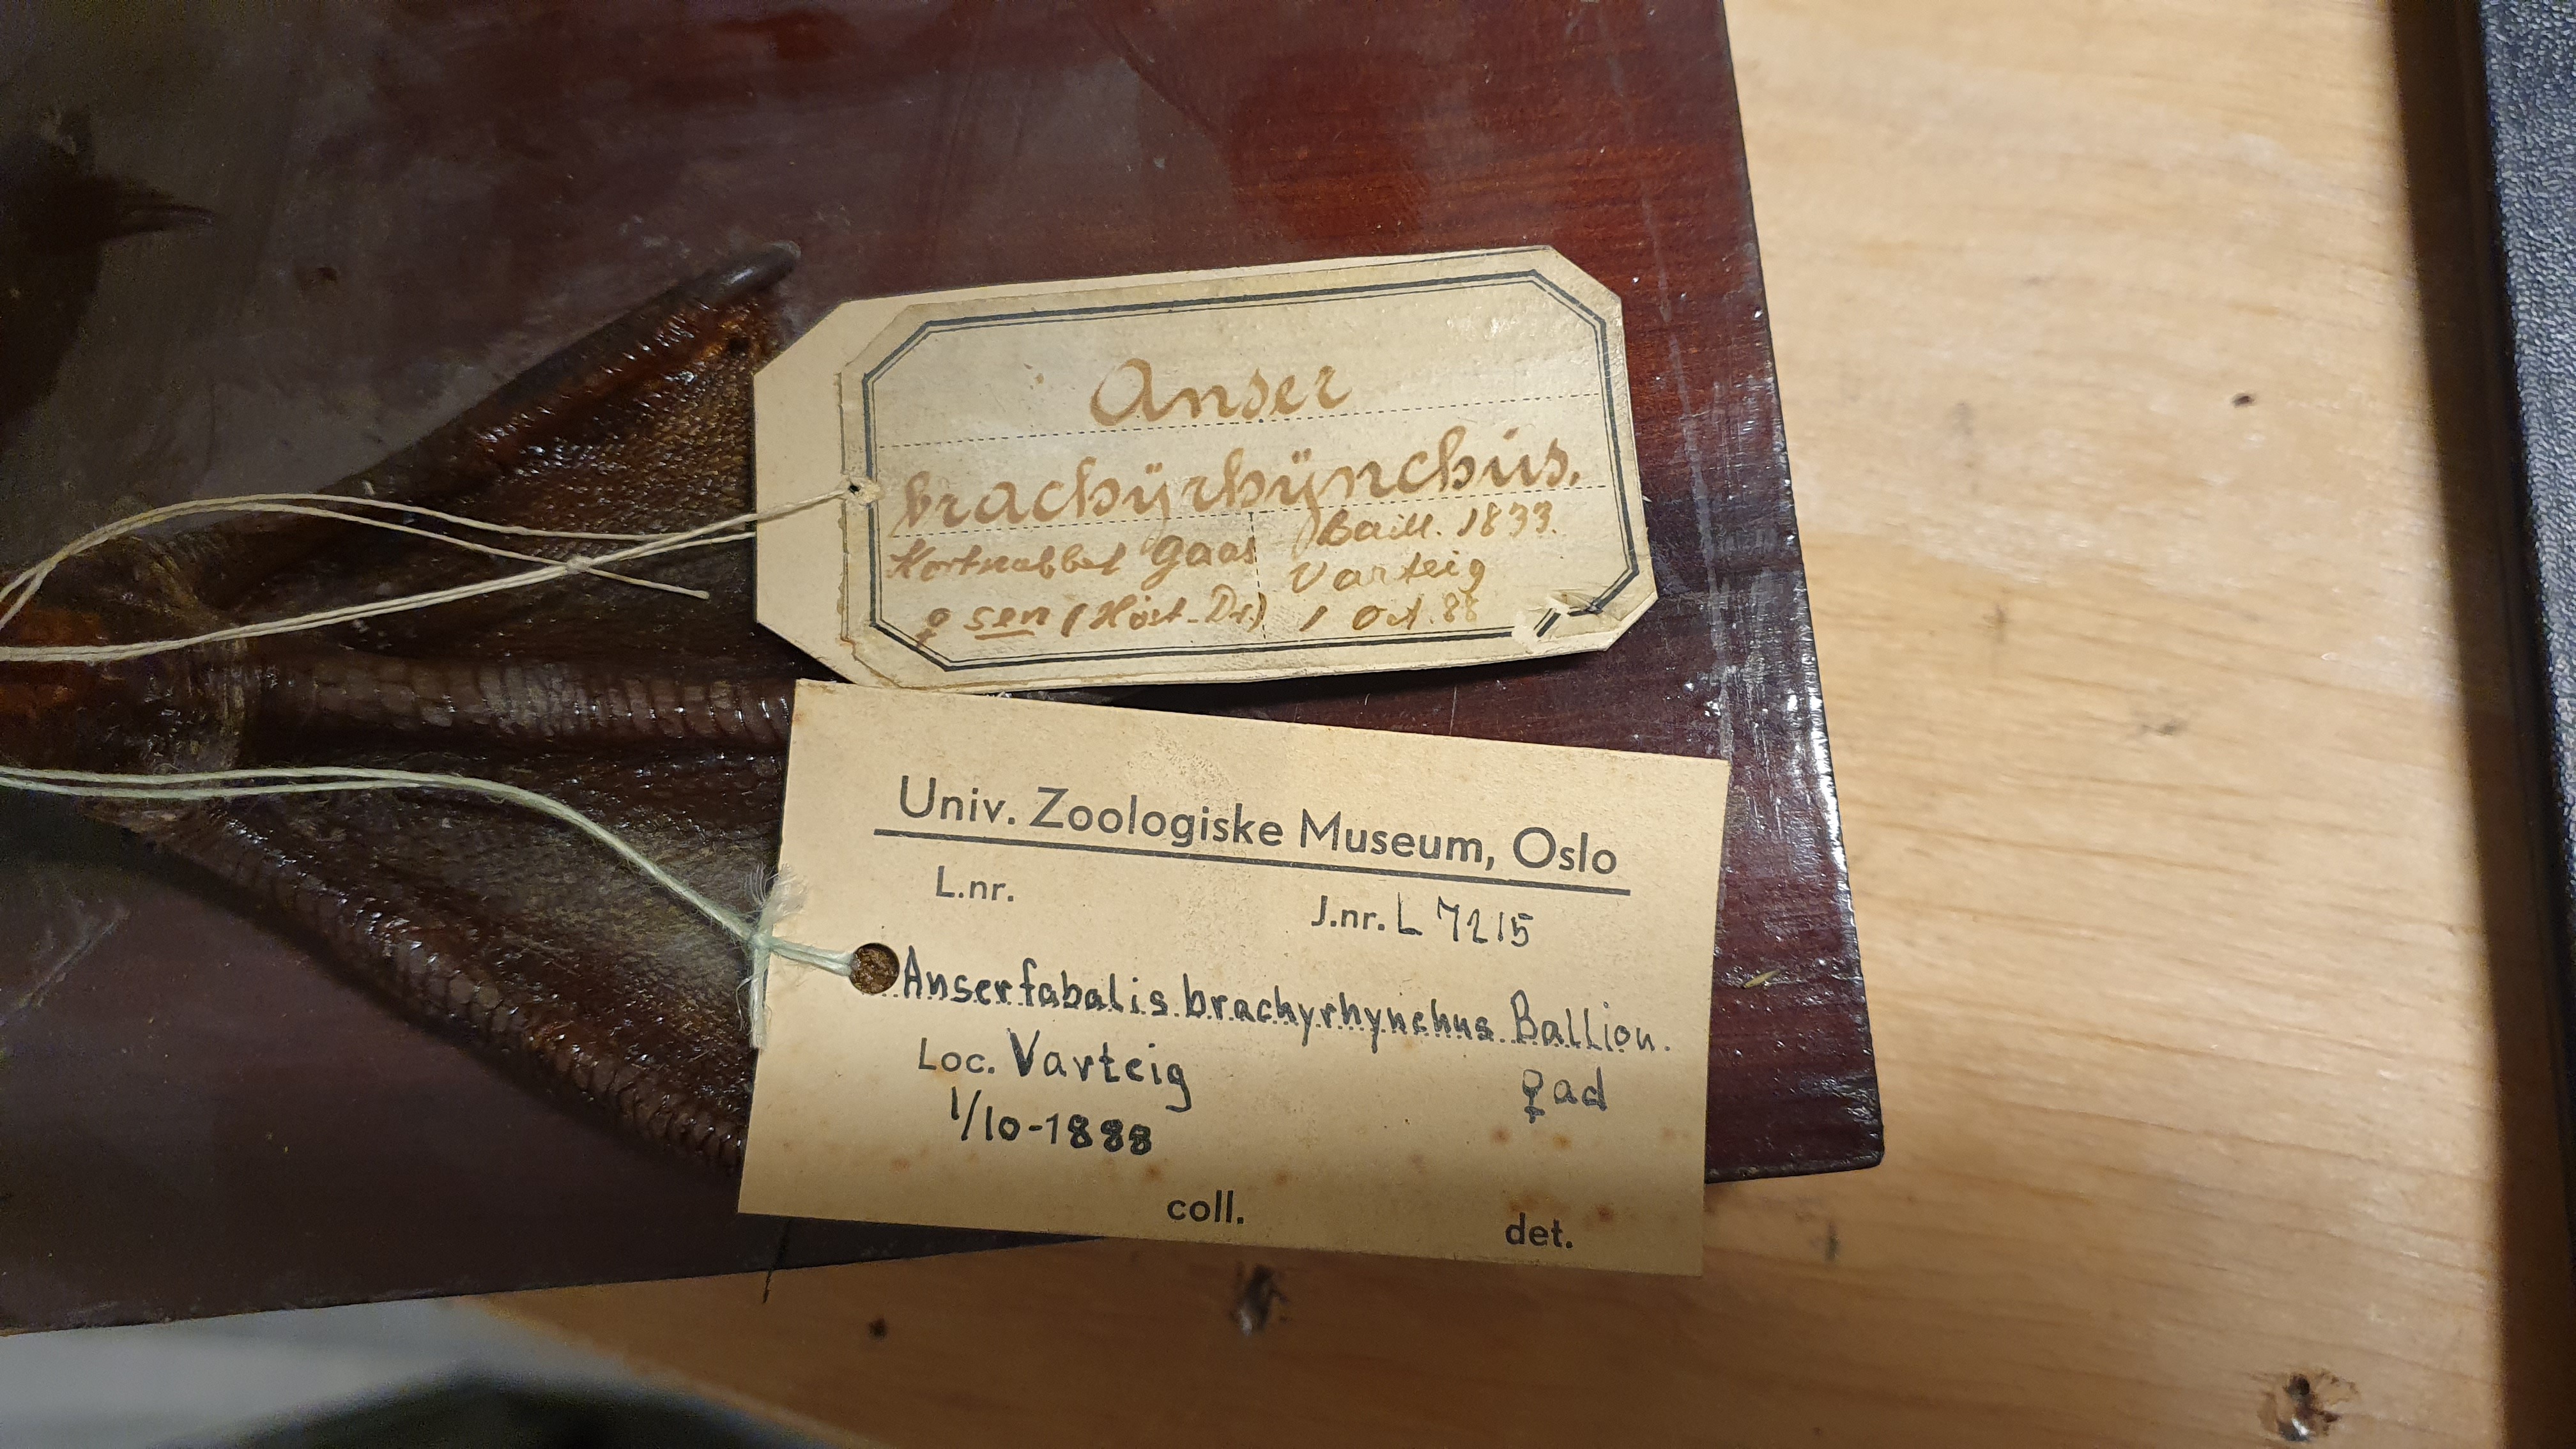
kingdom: Animalia
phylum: Chordata
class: Aves
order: Anseriformes
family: Anatidae
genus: Anser
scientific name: Anser brachyrhynchus
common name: Pink-footed goose
